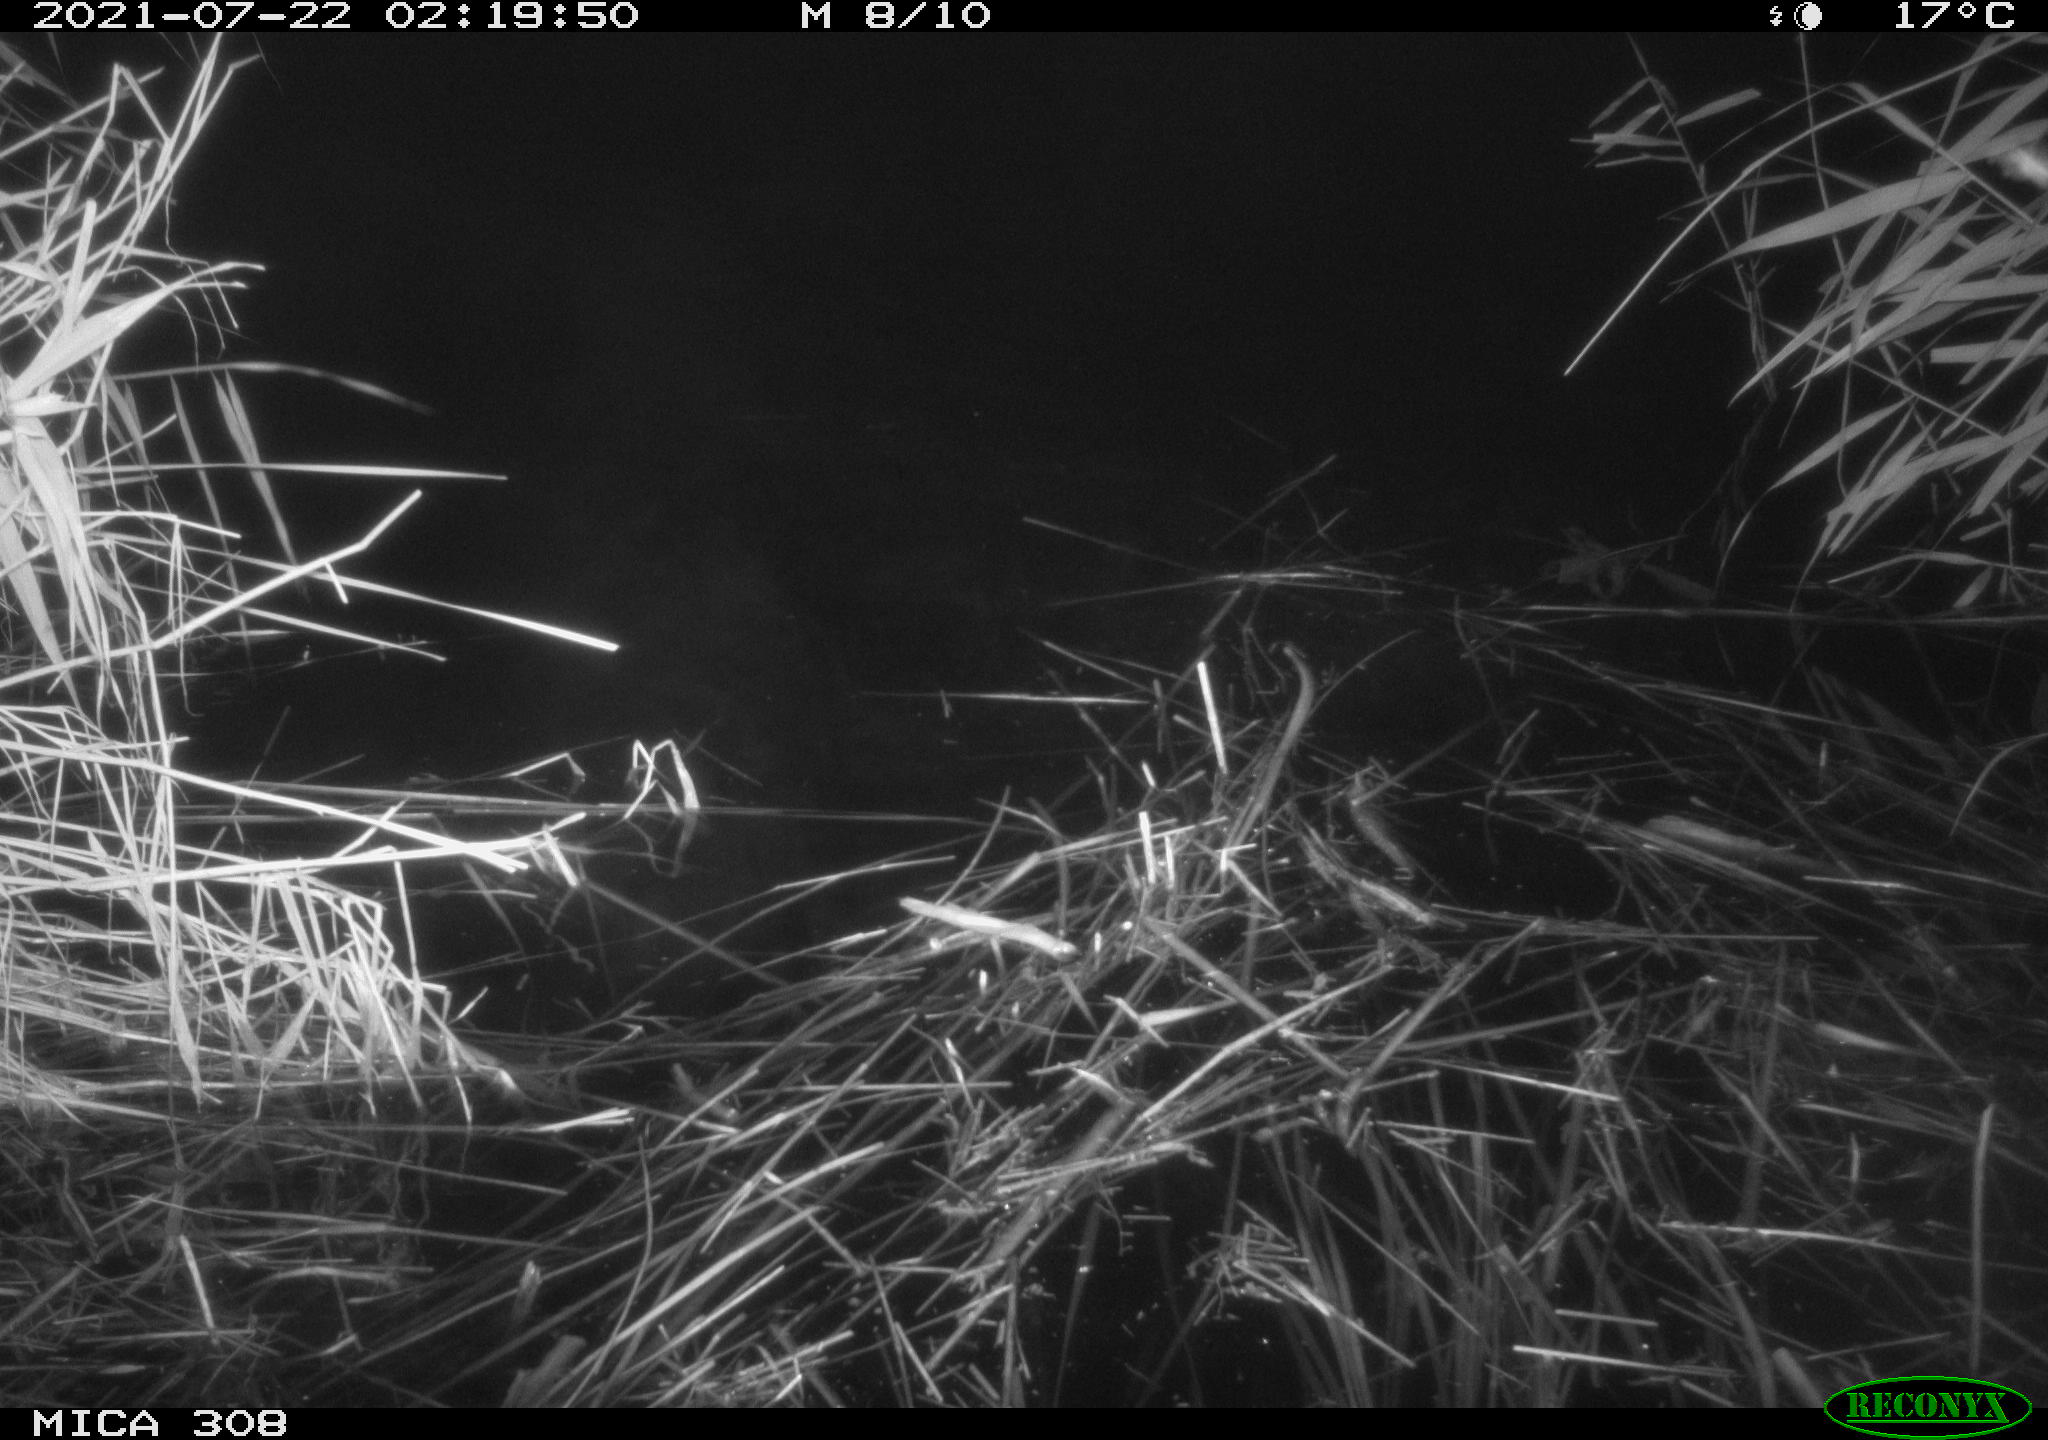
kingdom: Animalia
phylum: Chordata
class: Aves
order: Anseriformes
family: Anatidae
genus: Anas
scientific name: Anas platyrhynchos
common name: Mallard
